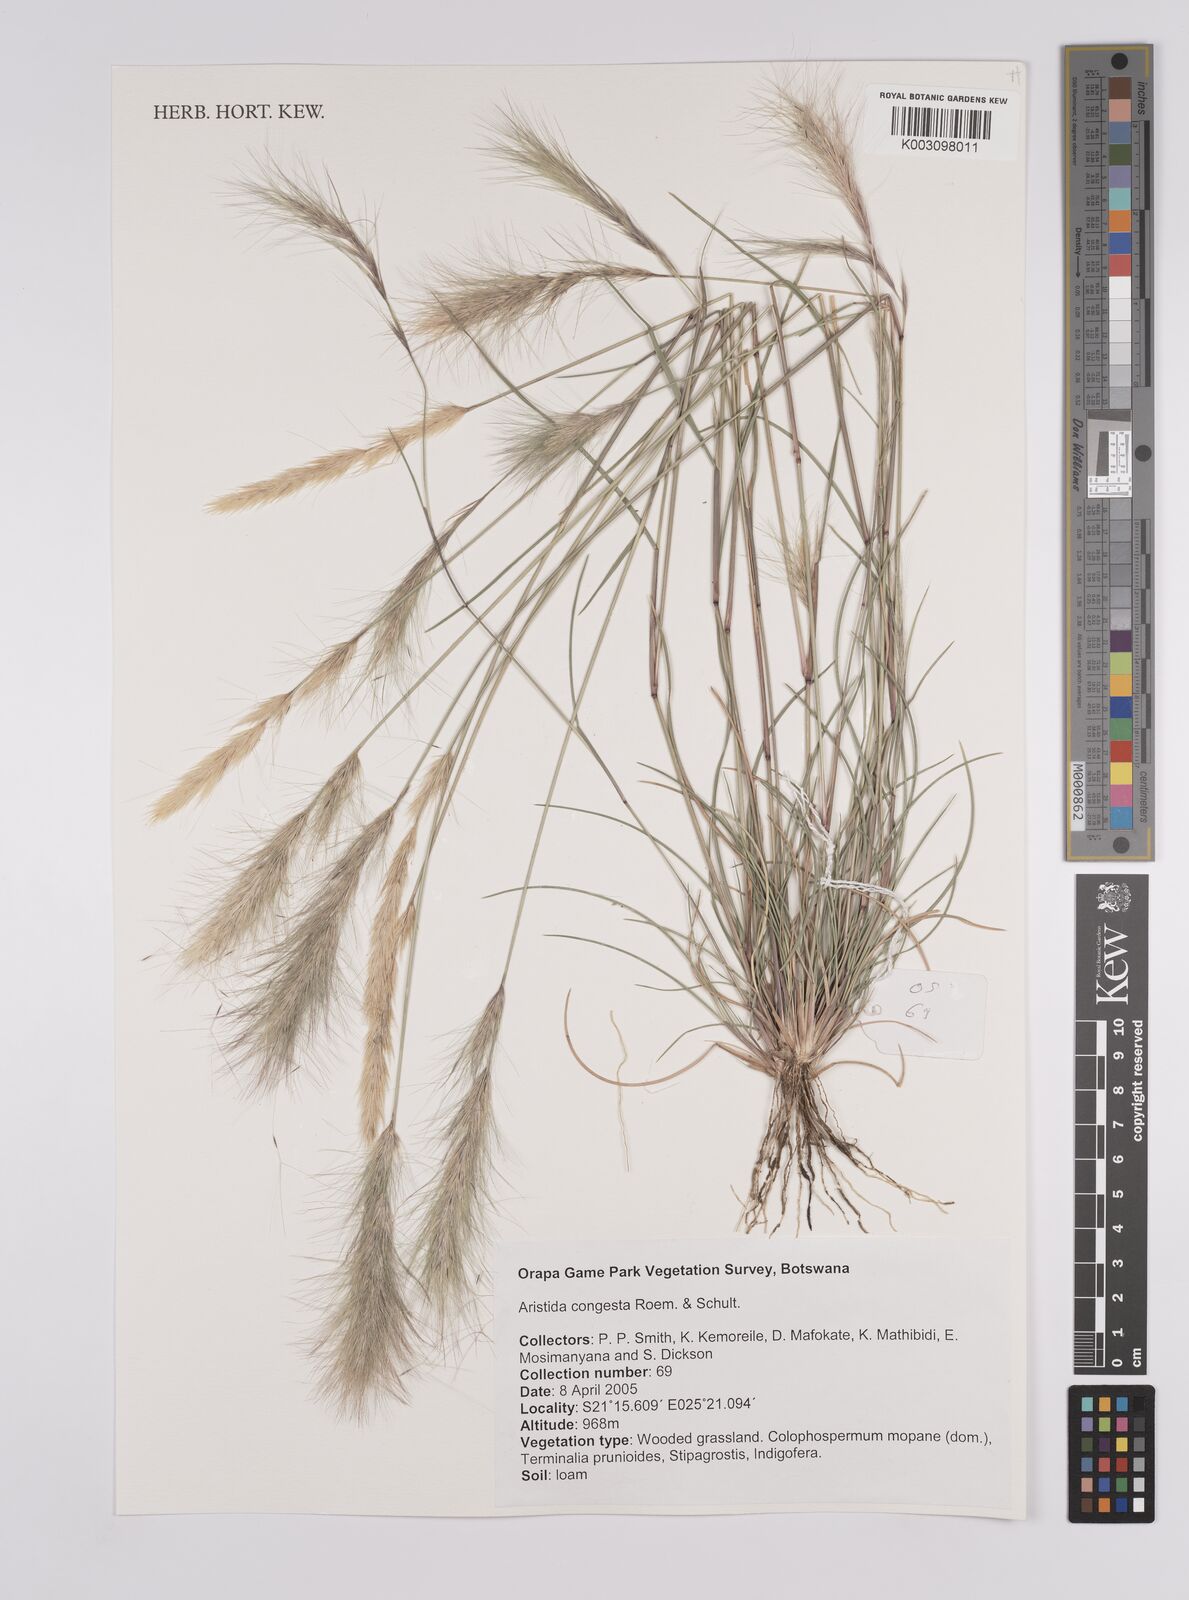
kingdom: Plantae
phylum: Tracheophyta
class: Liliopsida
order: Poales
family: Poaceae
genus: Aristida
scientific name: Aristida congesta
